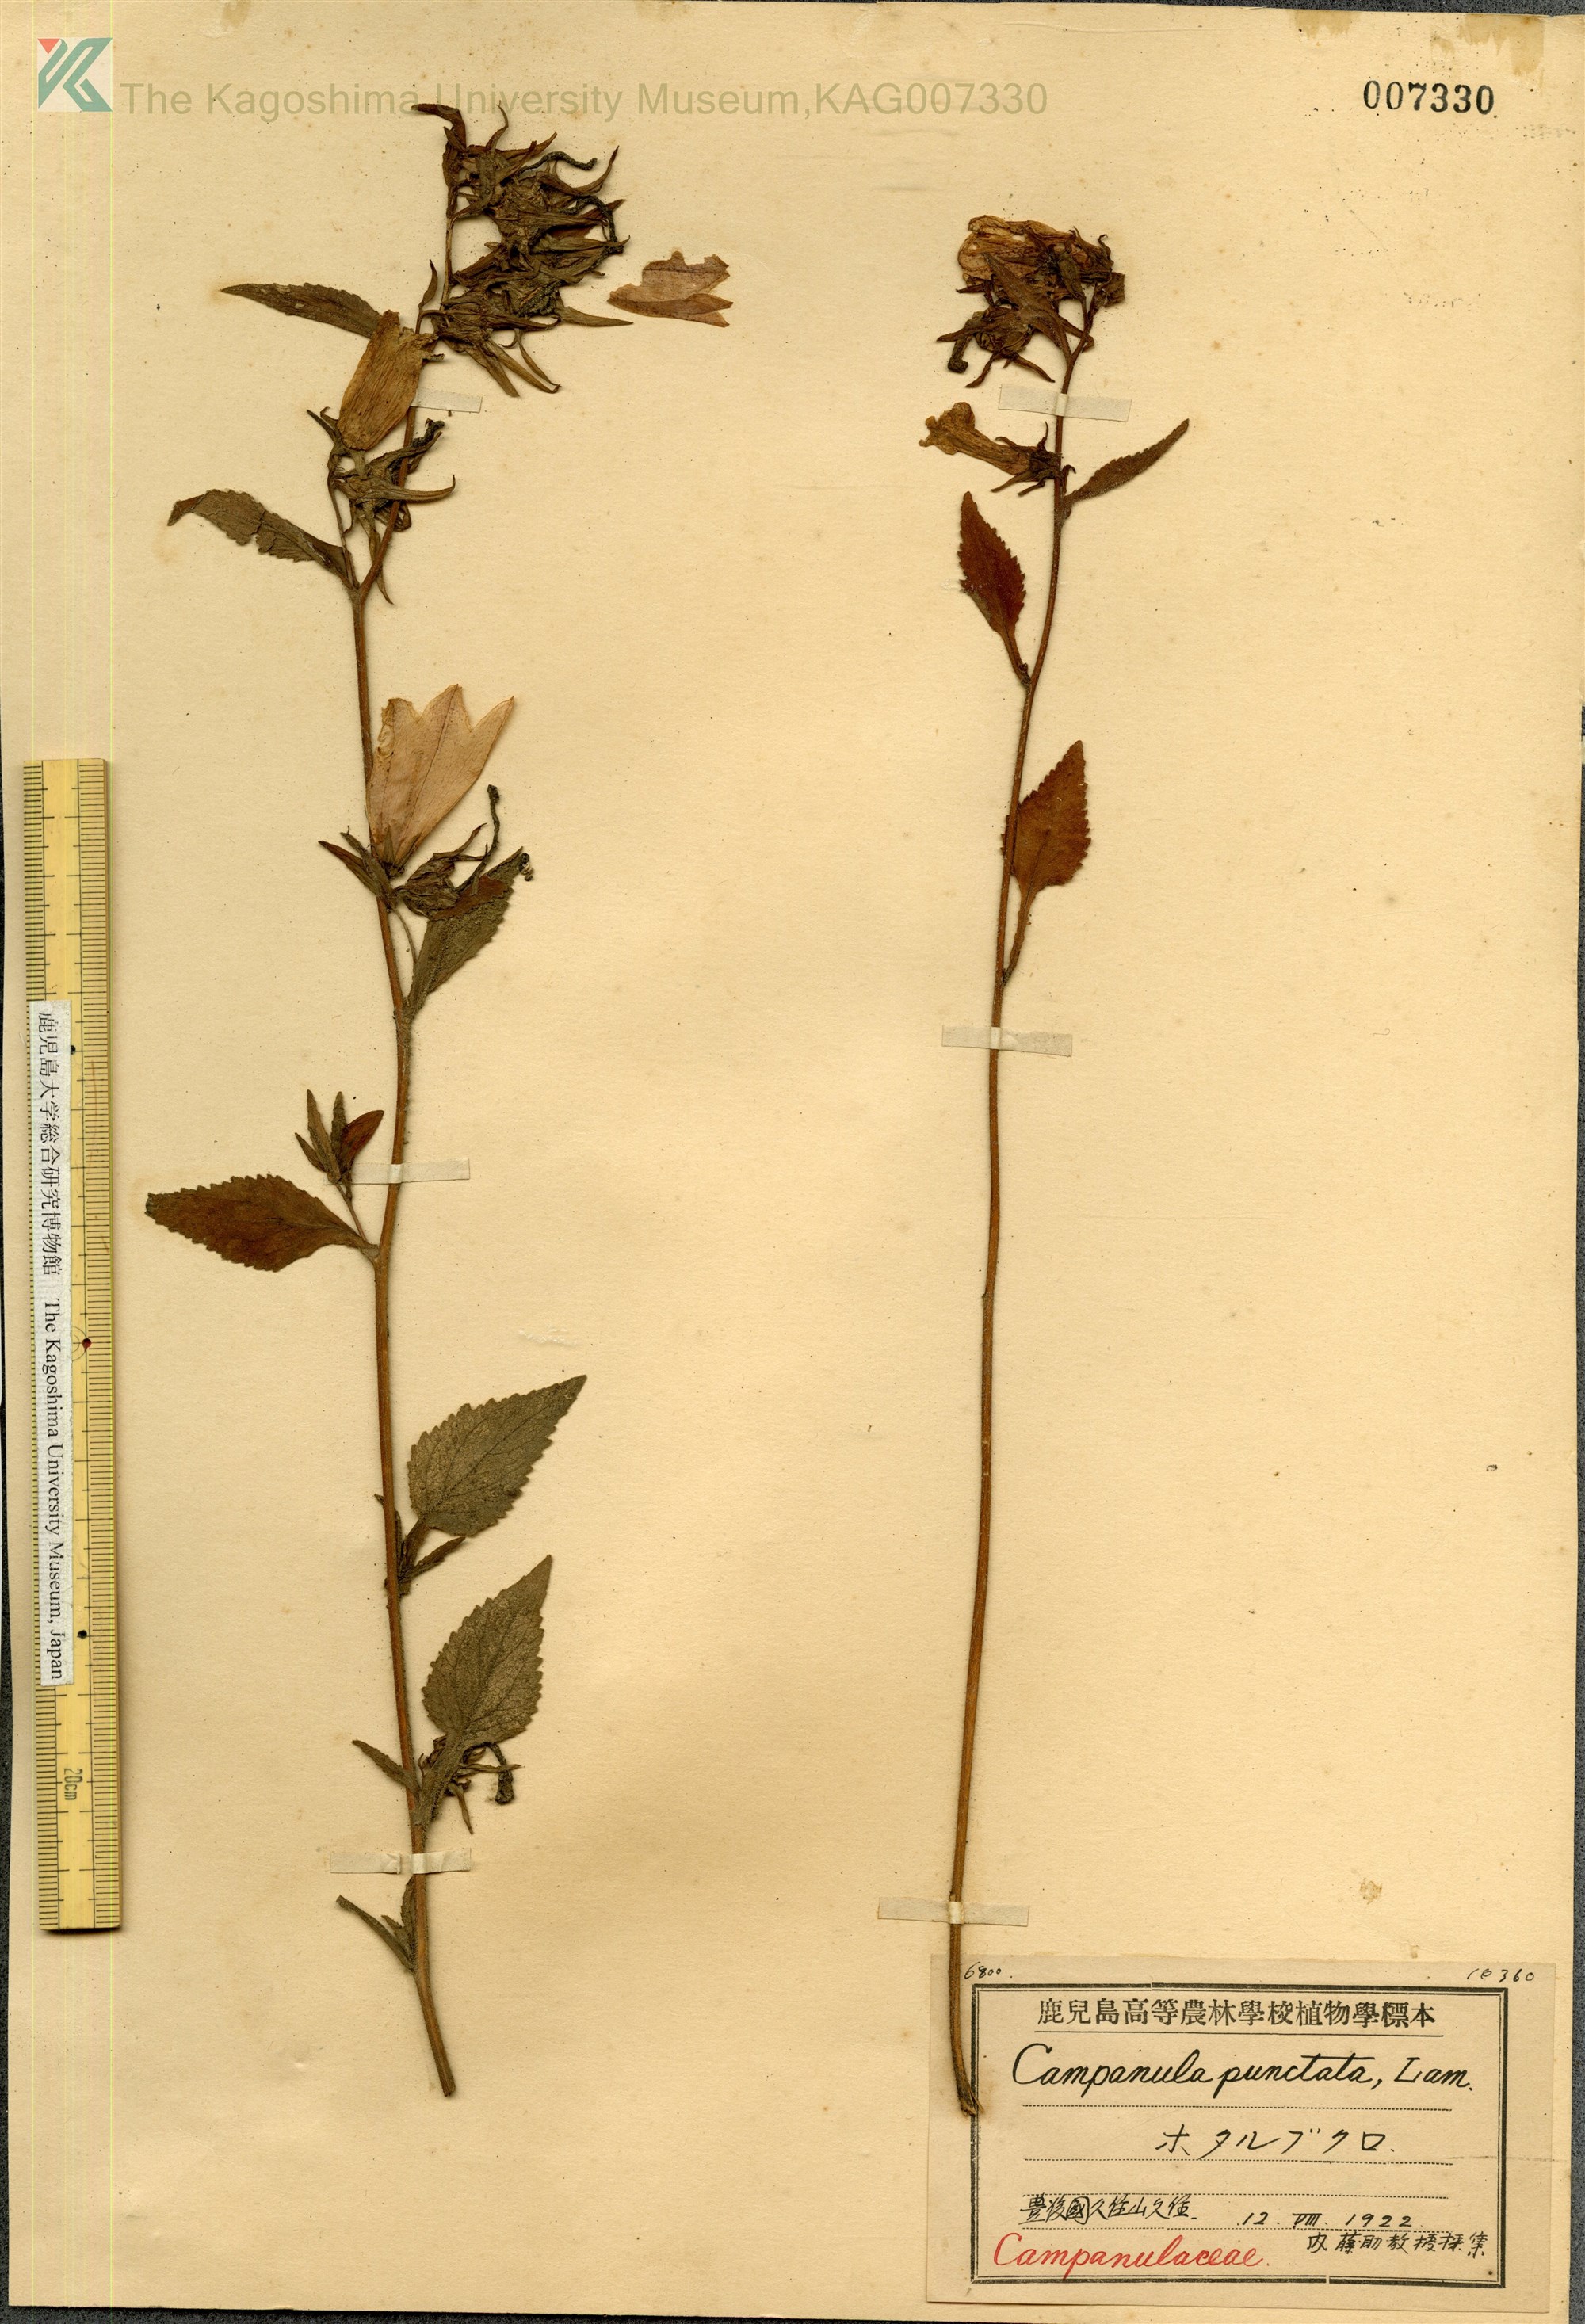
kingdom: Plantae
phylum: Tracheophyta
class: Magnoliopsida
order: Asterales
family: Campanulaceae
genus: Campanula
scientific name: Campanula punctata
